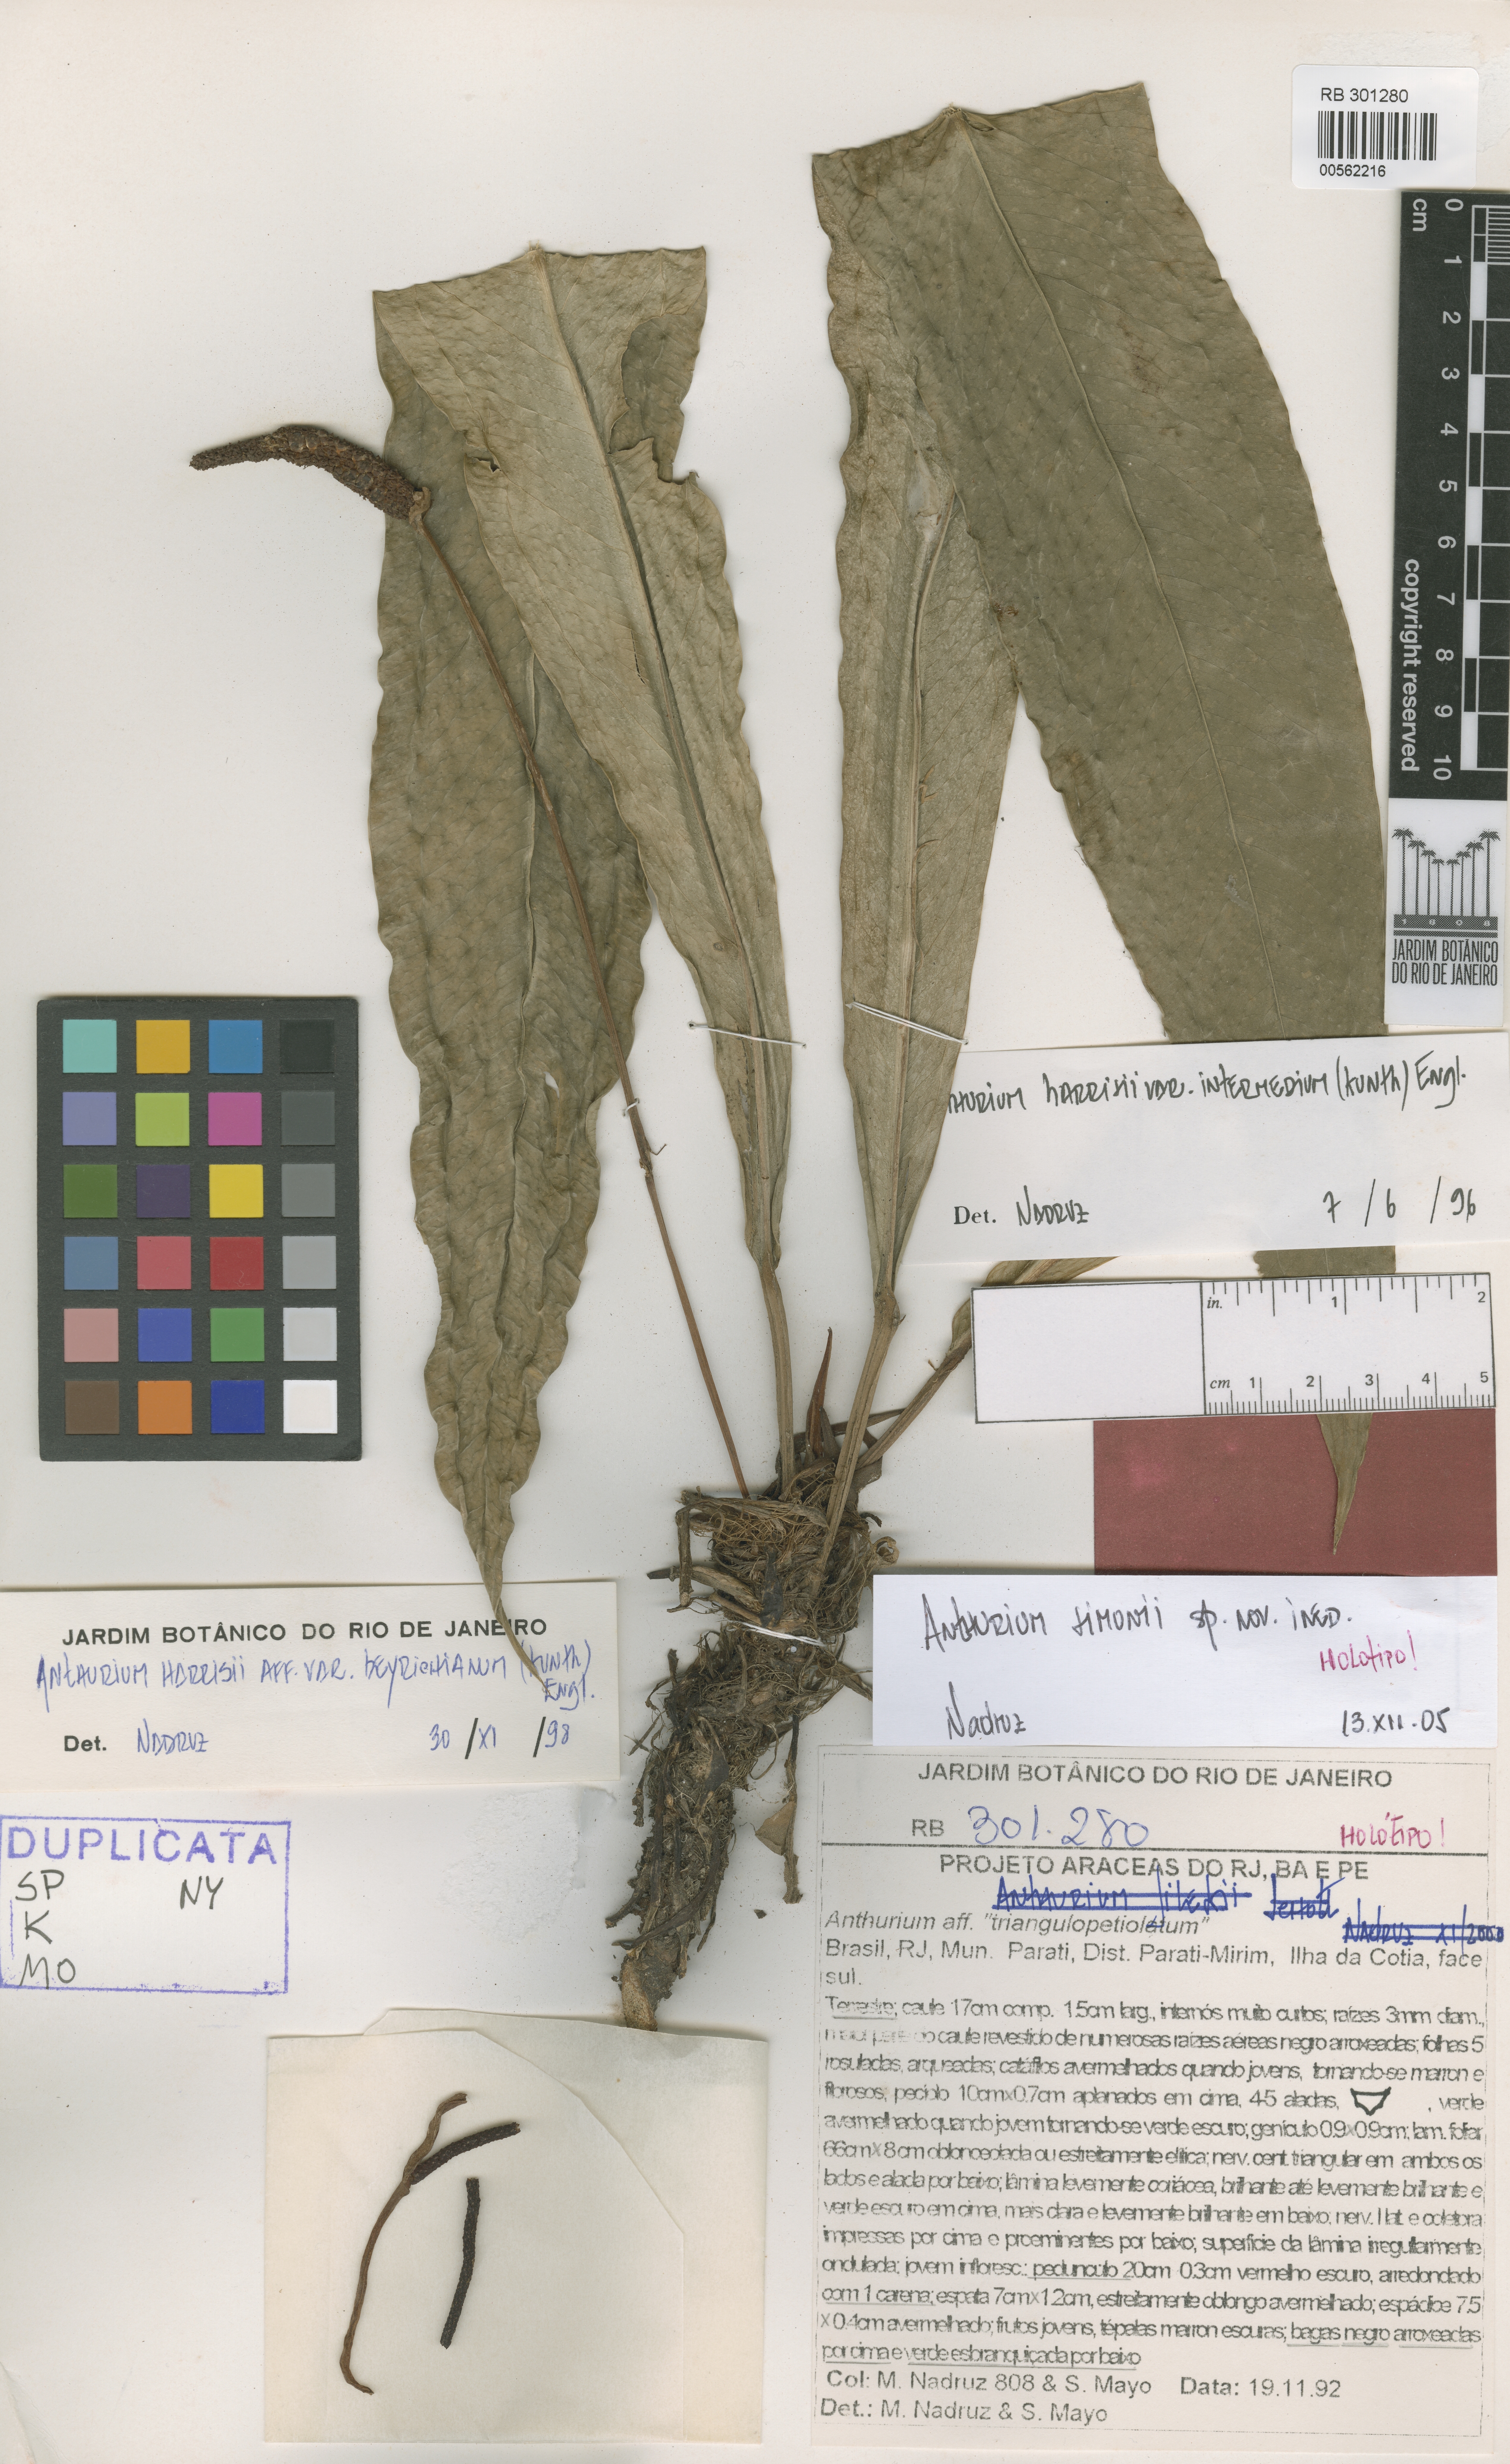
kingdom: Plantae
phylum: Tracheophyta
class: Liliopsida
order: Alismatales
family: Araceae
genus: Anthurium
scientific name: Anthurium simonii
